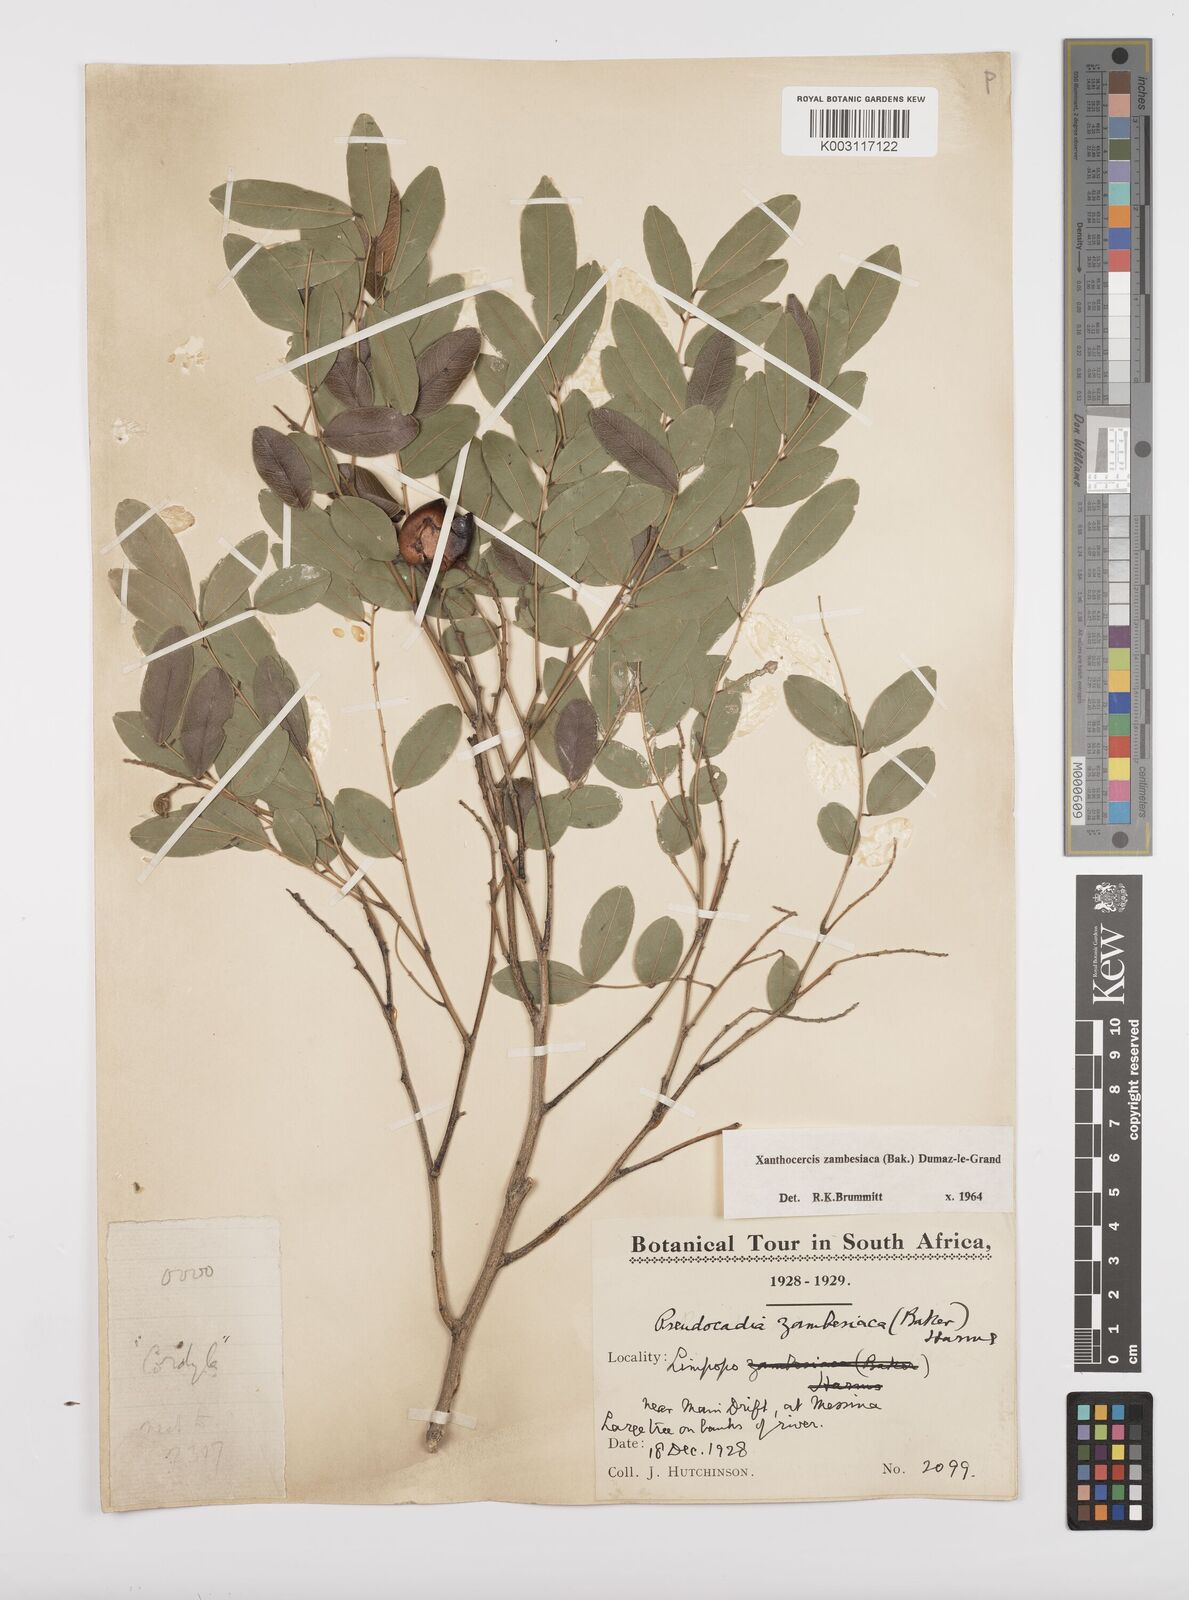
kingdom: Plantae
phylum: Tracheophyta
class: Magnoliopsida
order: Fabales
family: Fabaceae
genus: Xanthocercis
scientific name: Xanthocercis zambesiaca
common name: Nyala-tree
